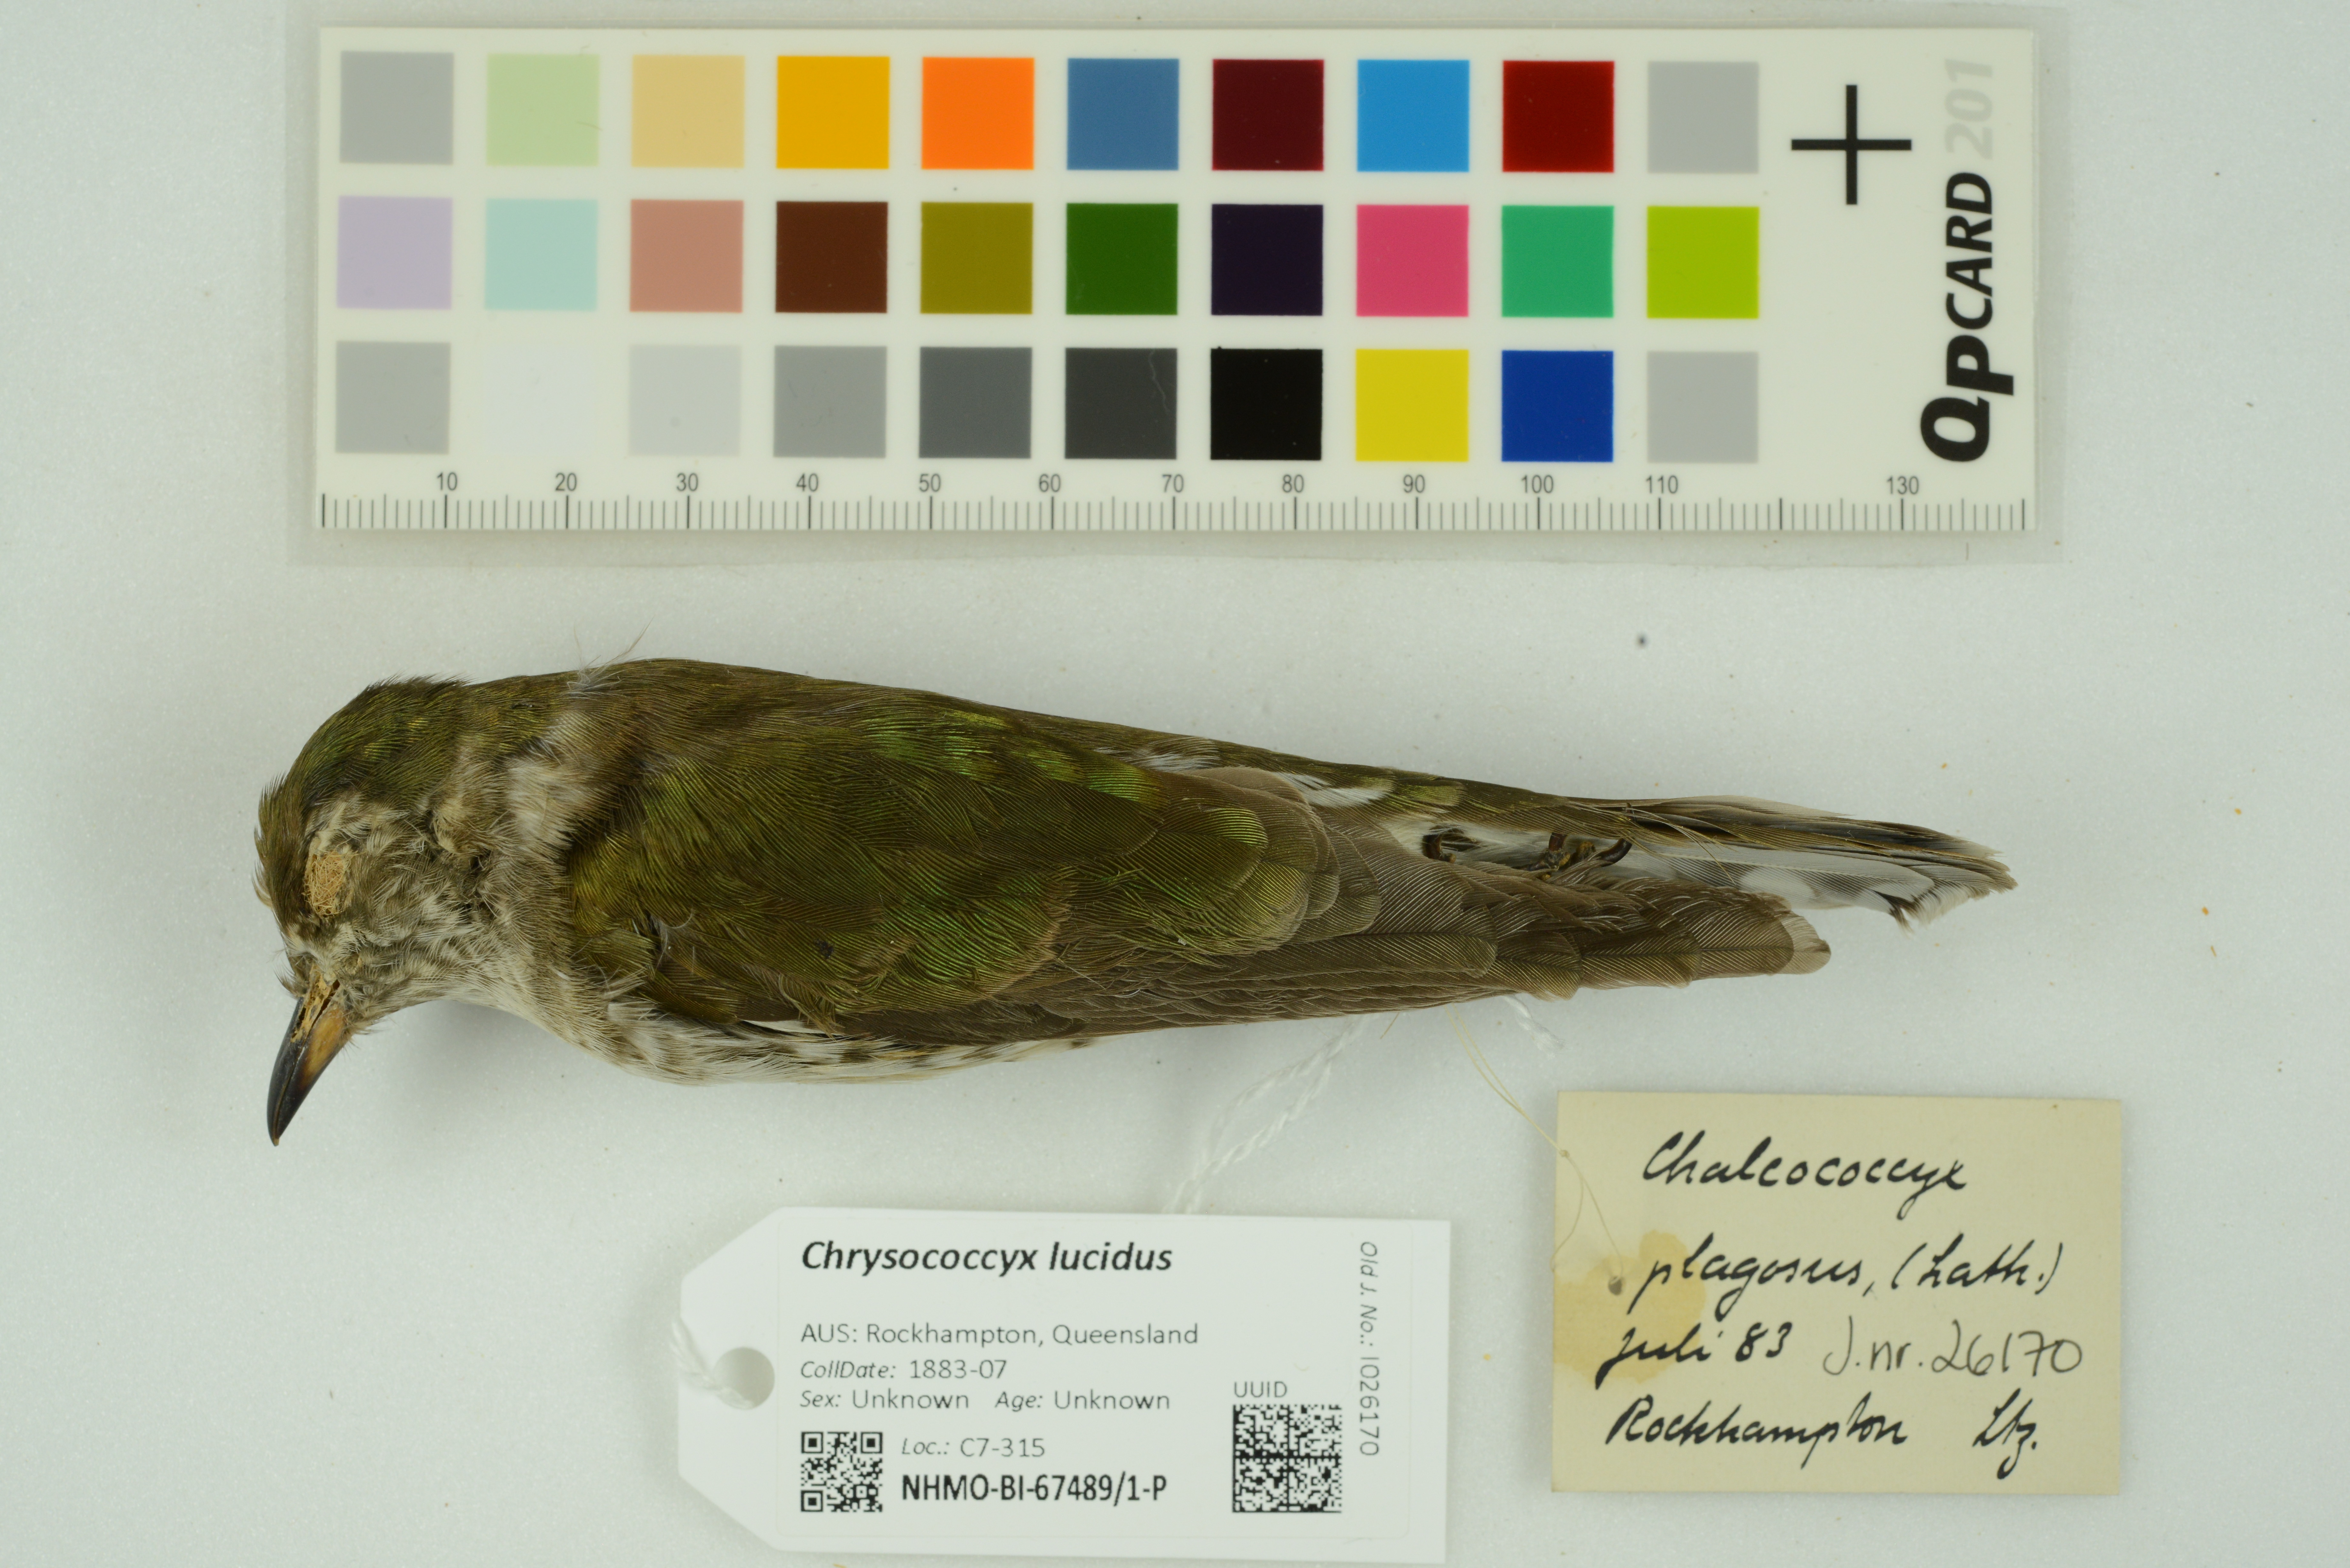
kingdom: Animalia
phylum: Chordata
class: Aves
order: Cuculiformes
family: Cuculidae
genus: Chrysococcyx
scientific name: Chrysococcyx lucidus
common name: Shining bronze cuckoo
